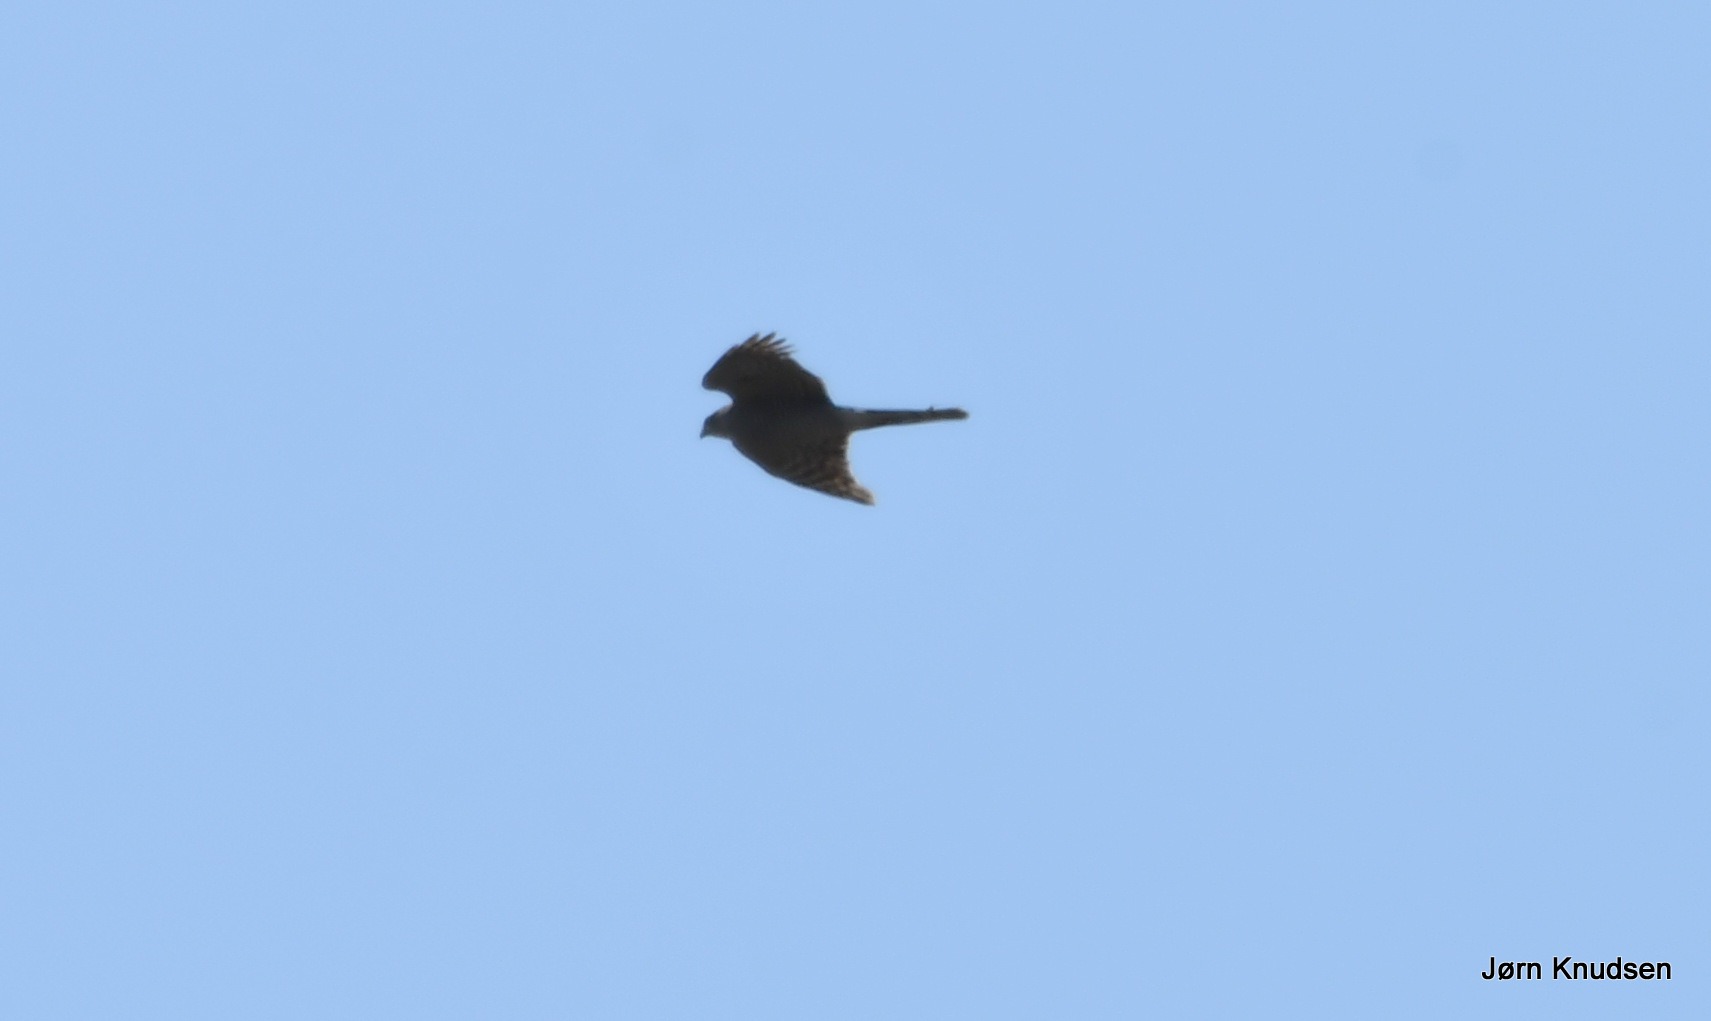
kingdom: Animalia
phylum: Chordata
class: Aves
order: Accipitriformes
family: Accipitridae
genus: Accipiter
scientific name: Accipiter nisus
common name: Spurvehøg
